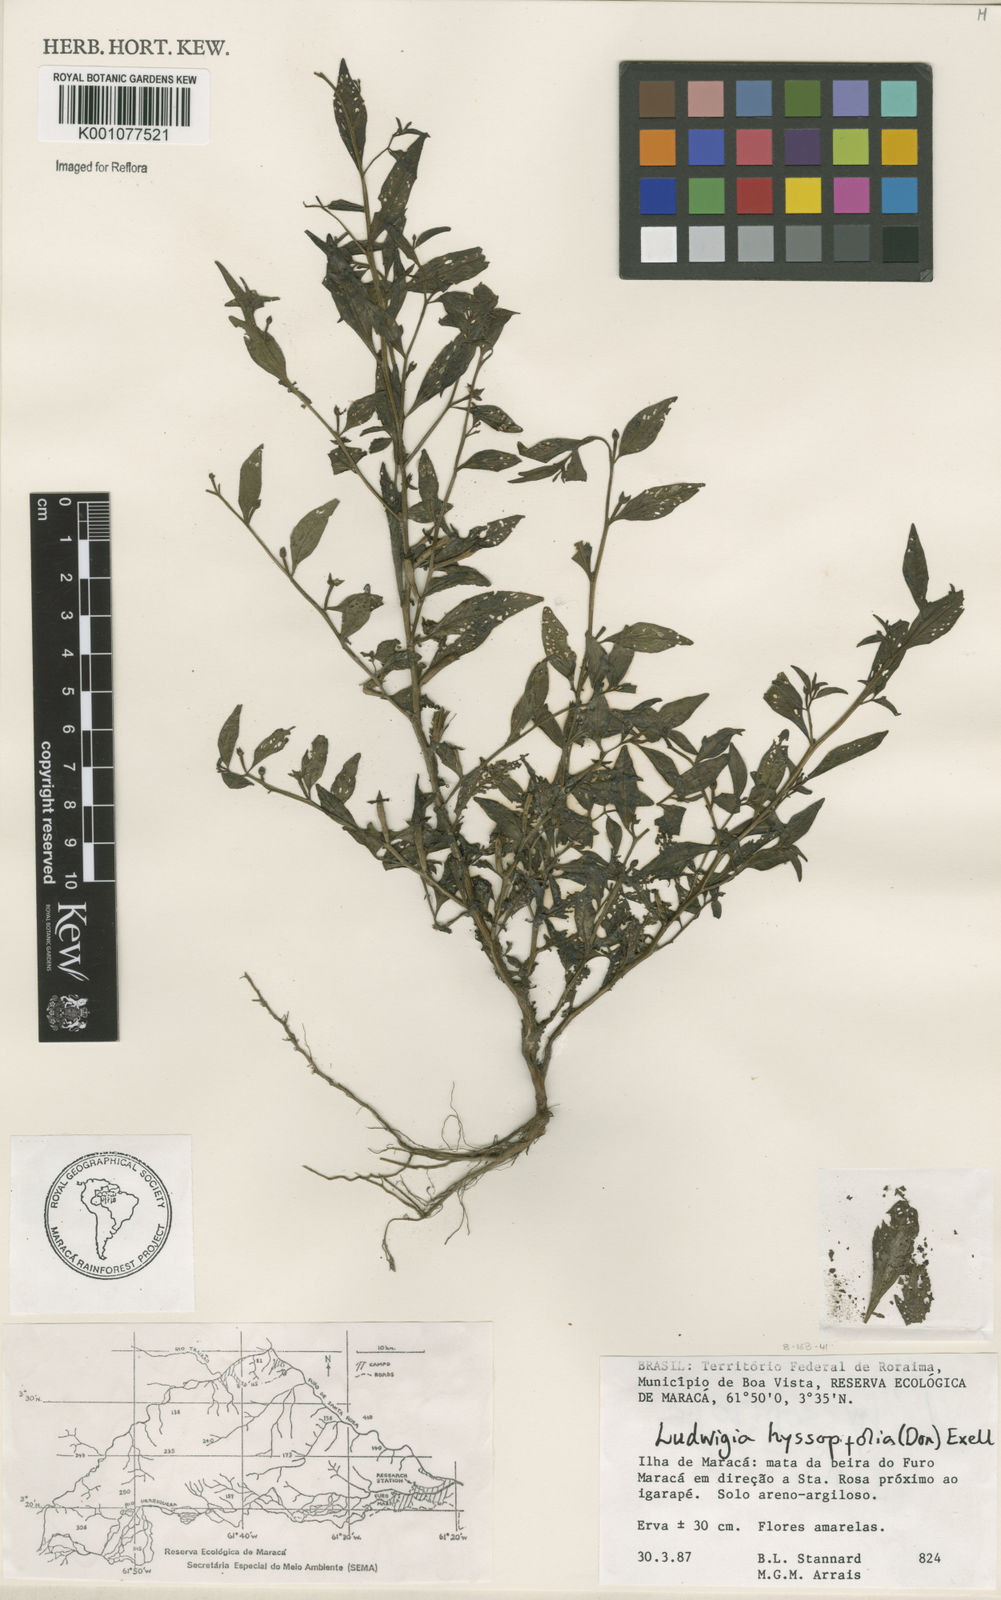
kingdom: Plantae
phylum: Tracheophyta
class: Magnoliopsida
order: Myrtales
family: Onagraceae
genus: Ludwigia
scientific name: Ludwigia hyssopifolia
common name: Linear leaf water primrose
